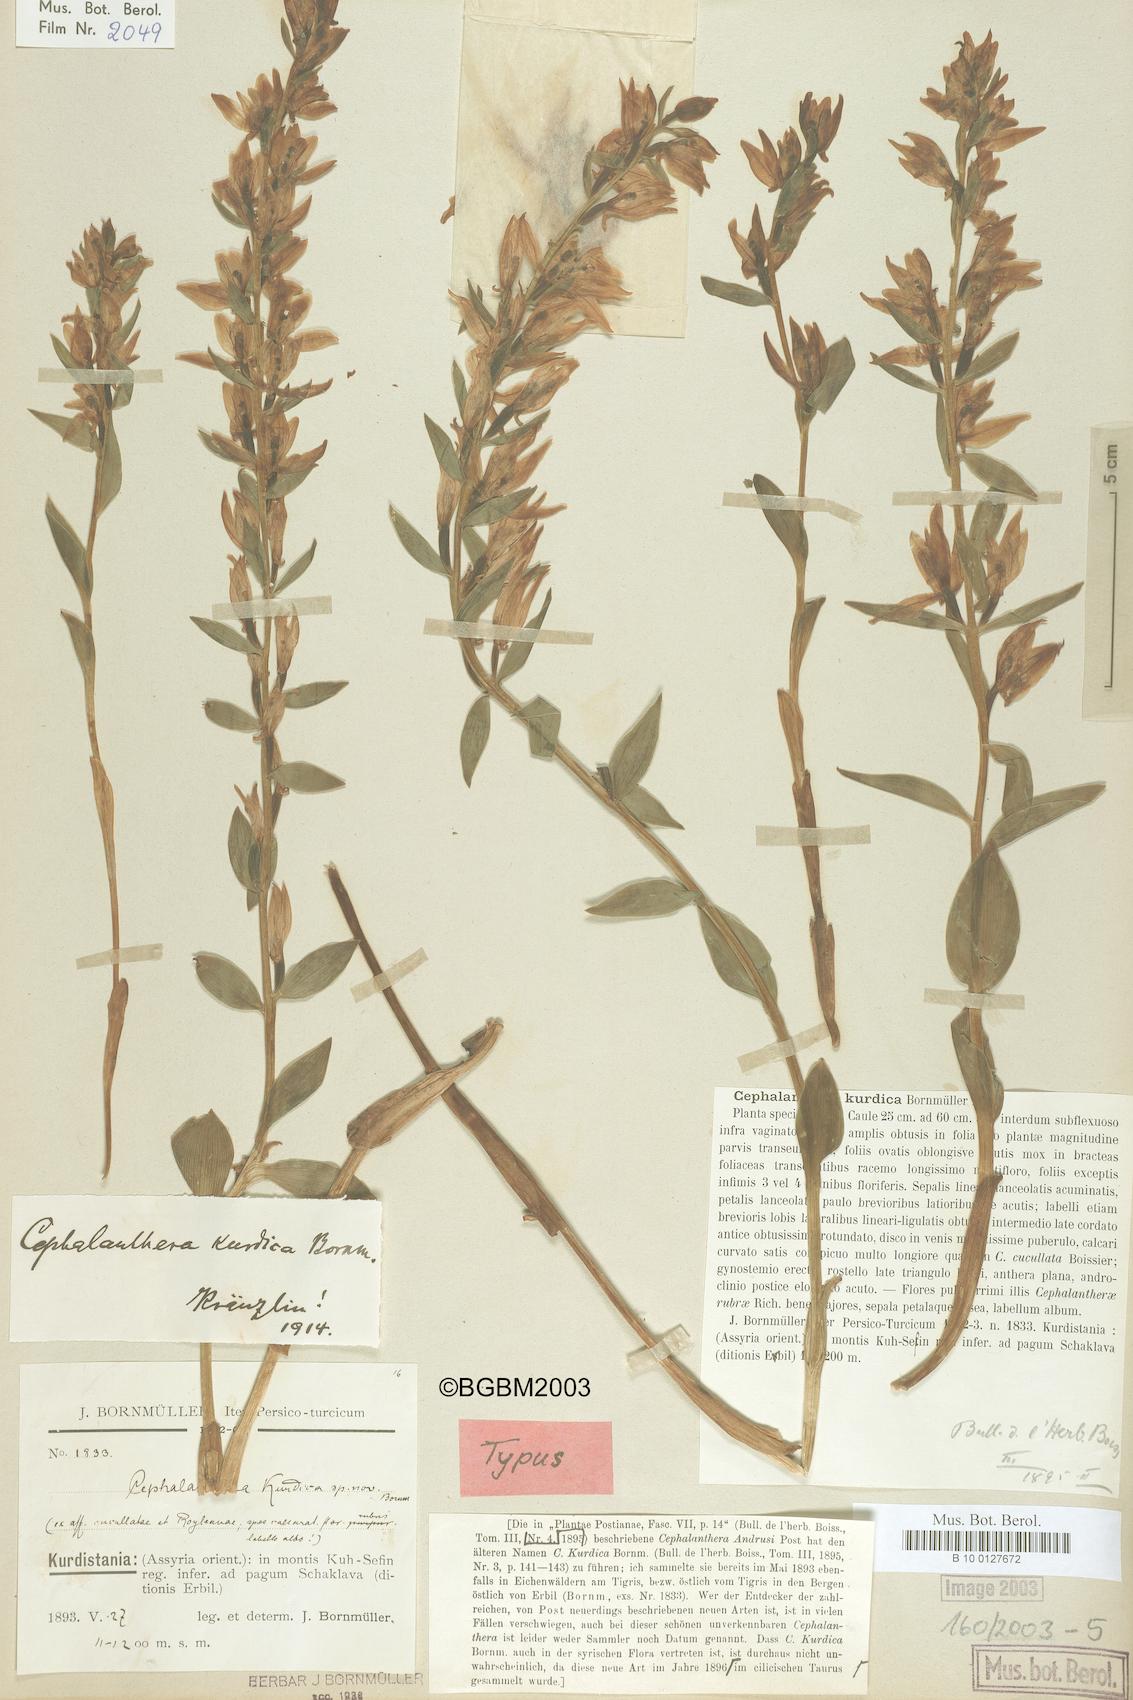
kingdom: Plantae
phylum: Tracheophyta
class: Liliopsida
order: Asparagales
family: Orchidaceae
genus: Cephalanthera
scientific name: Cephalanthera kurdica
